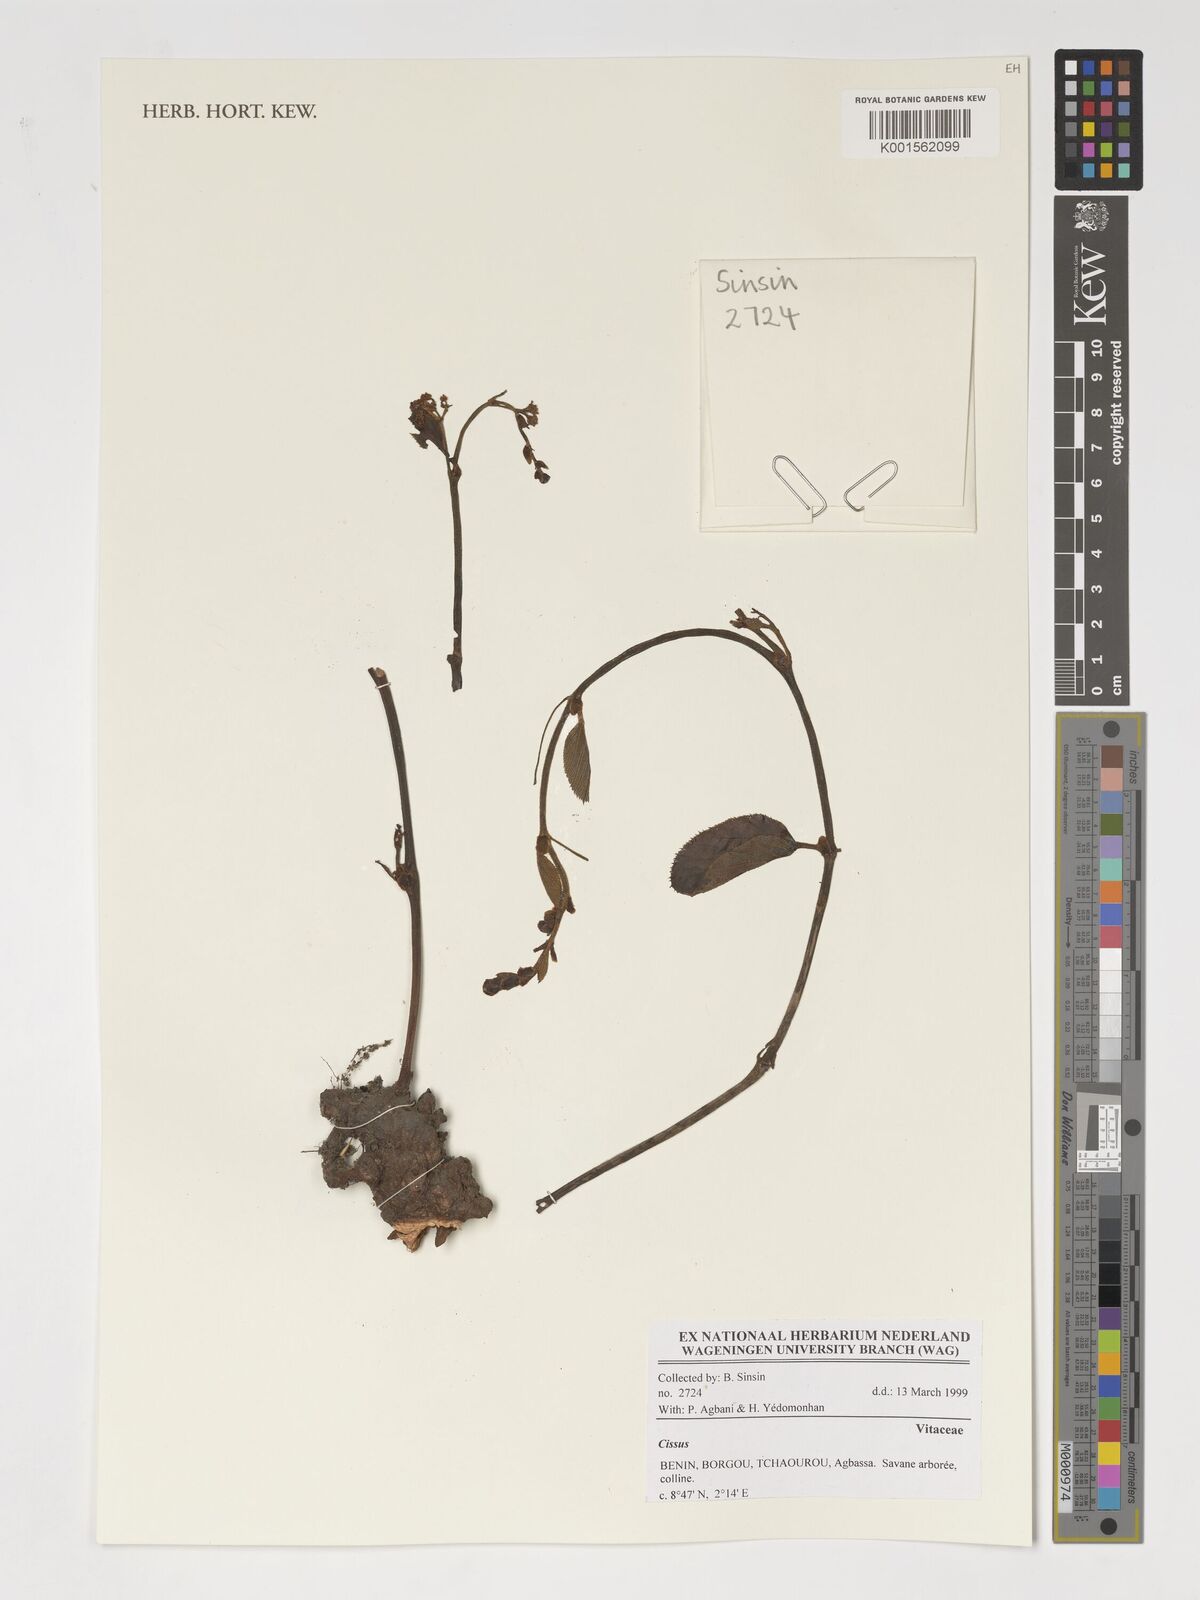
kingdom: Plantae
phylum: Tracheophyta
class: Magnoliopsida
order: Vitales
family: Vitaceae
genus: Cissus
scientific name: Cissus
